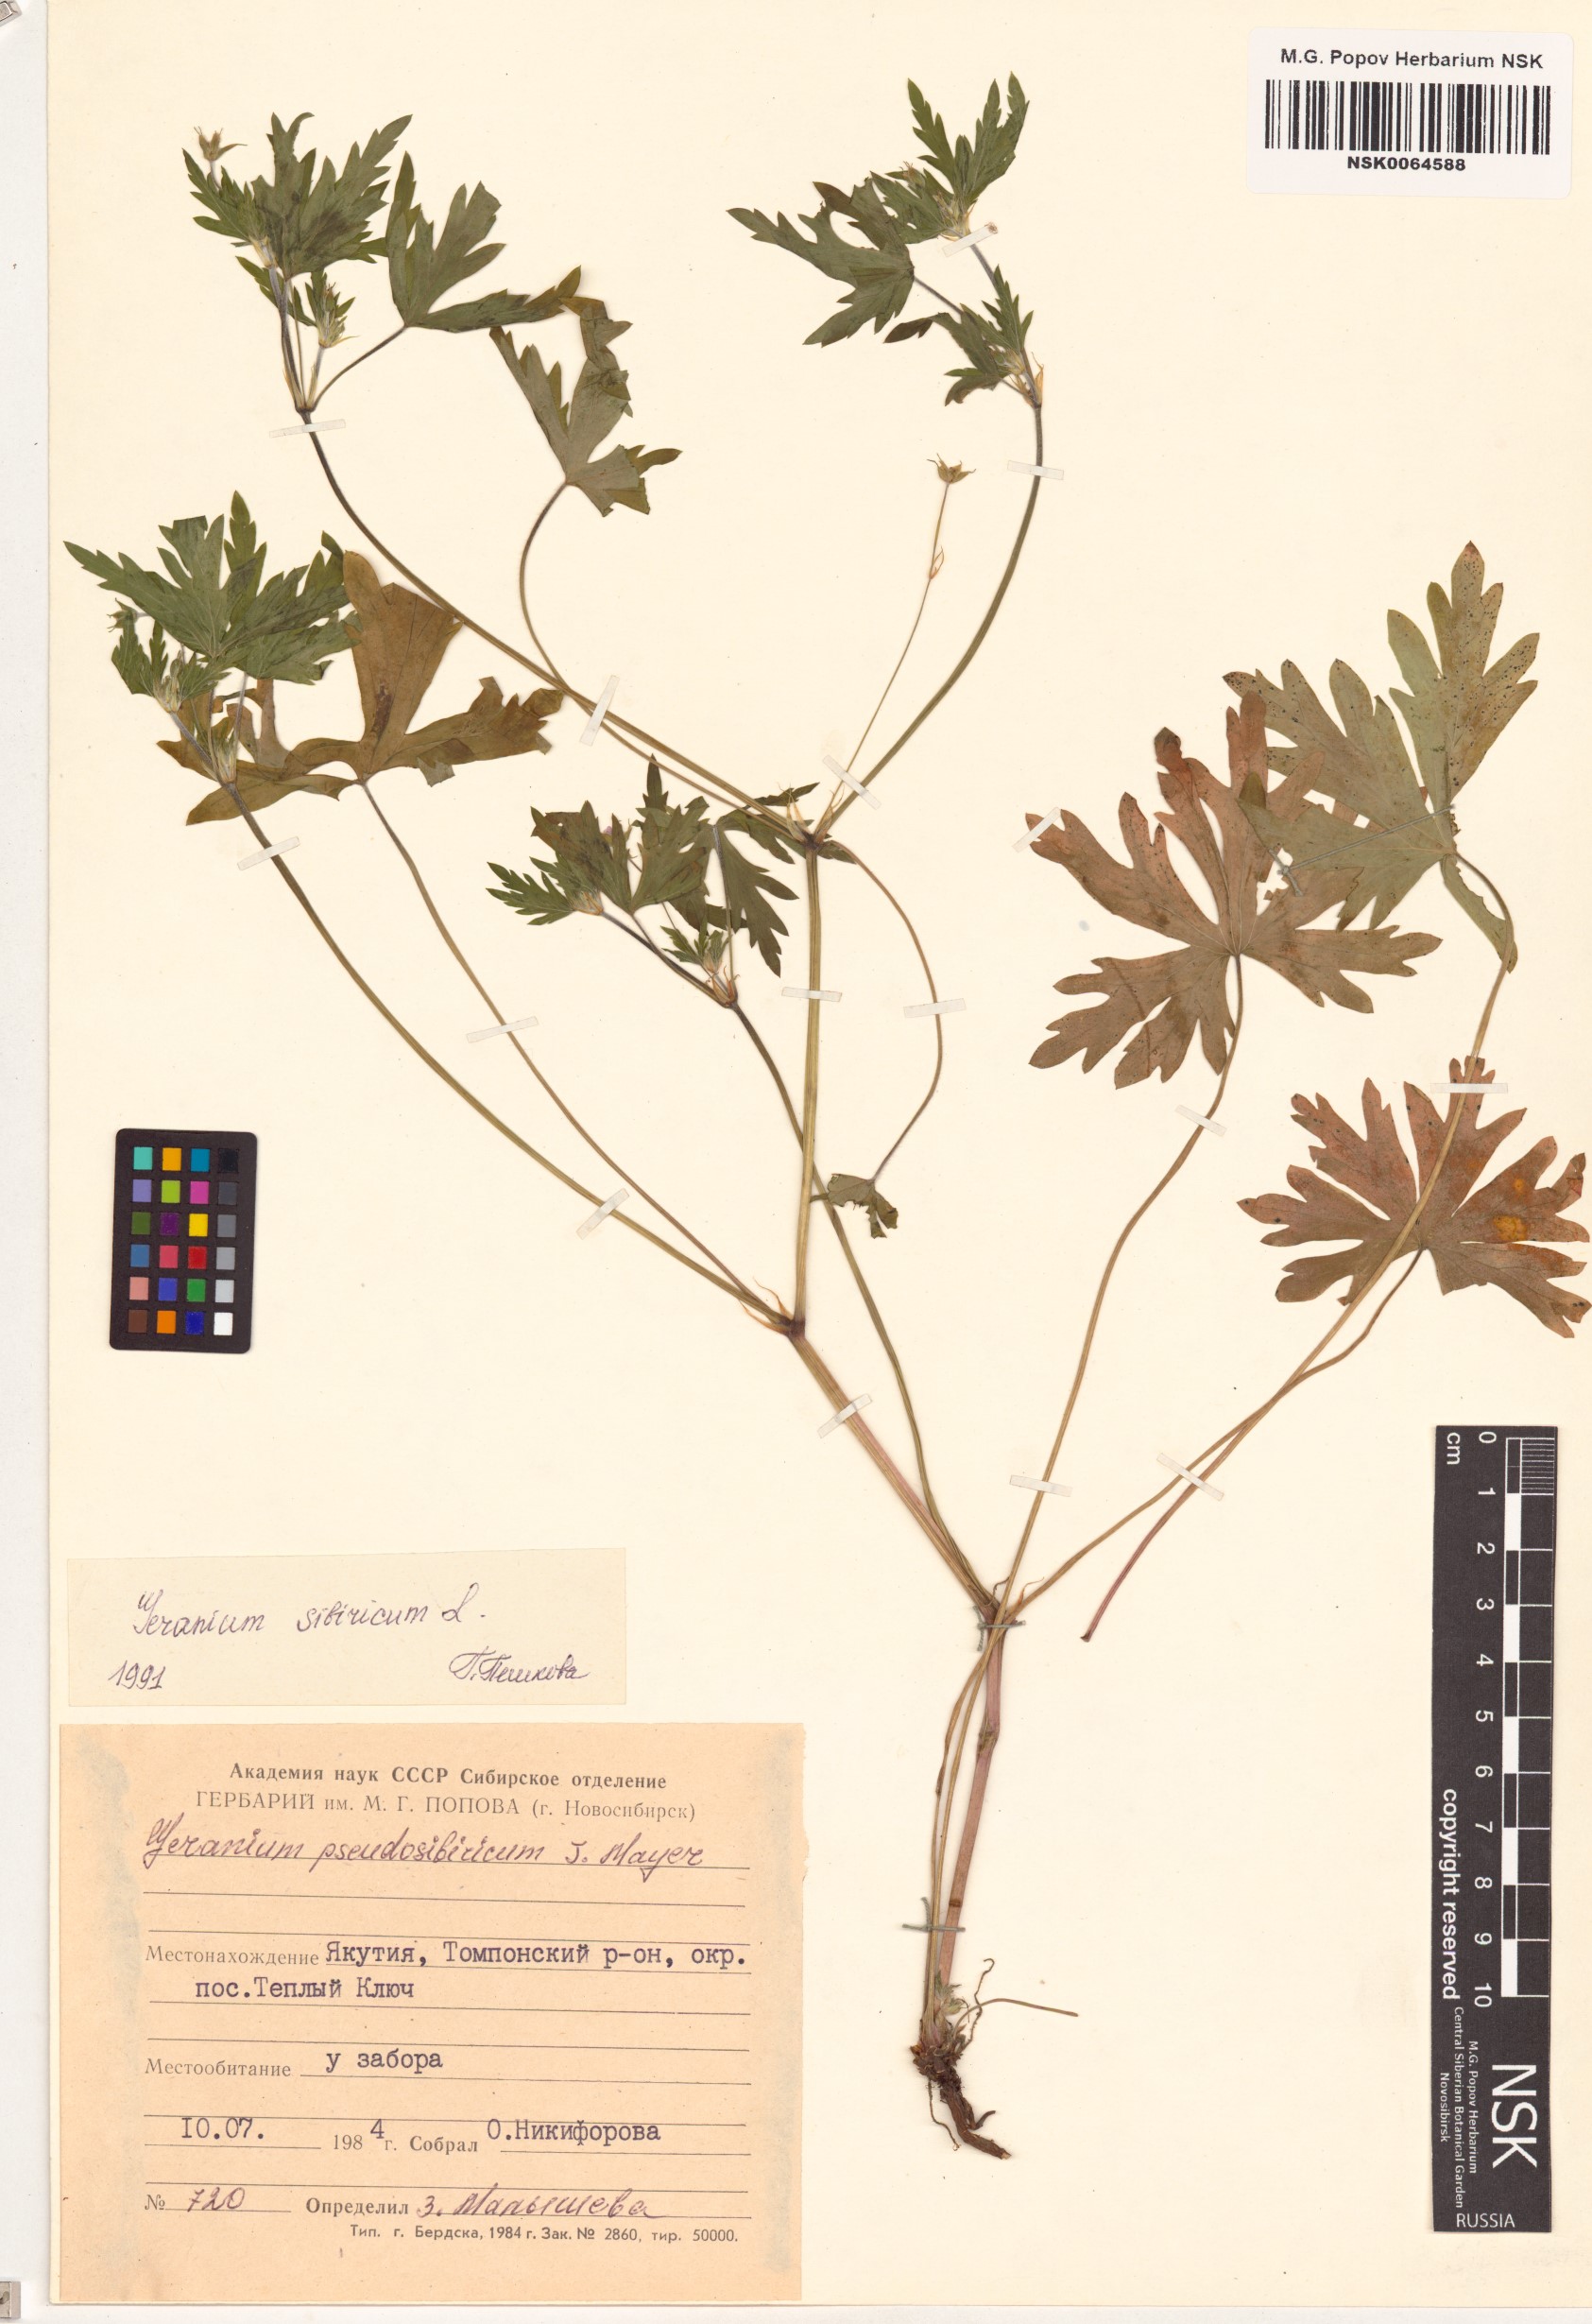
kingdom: Plantae
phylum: Tracheophyta
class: Magnoliopsida
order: Geraniales
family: Geraniaceae
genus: Geranium
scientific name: Geranium sibiricum
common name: Siberian crane's-bill
